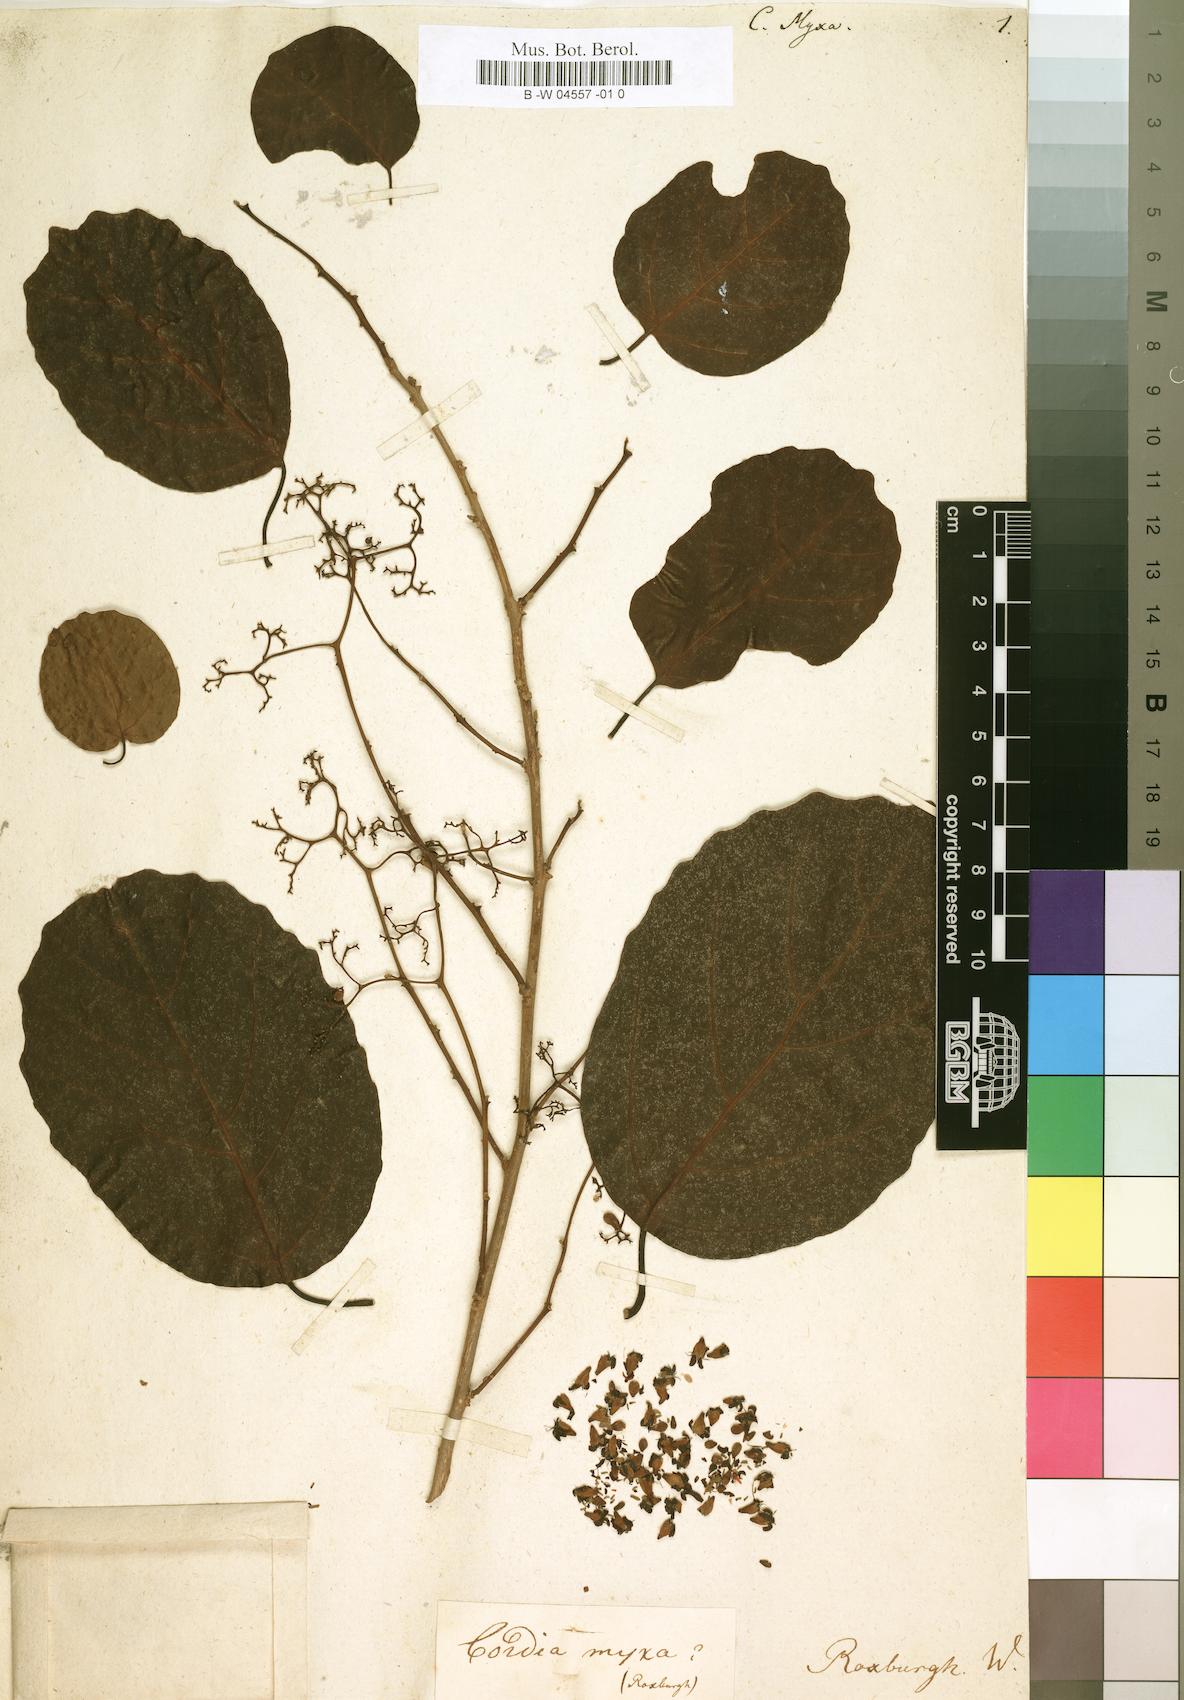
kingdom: Plantae
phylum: Tracheophyta
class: Magnoliopsida
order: Boraginales
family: Cordiaceae
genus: Cordia
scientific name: Cordia myxa
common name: Assyrian plum
